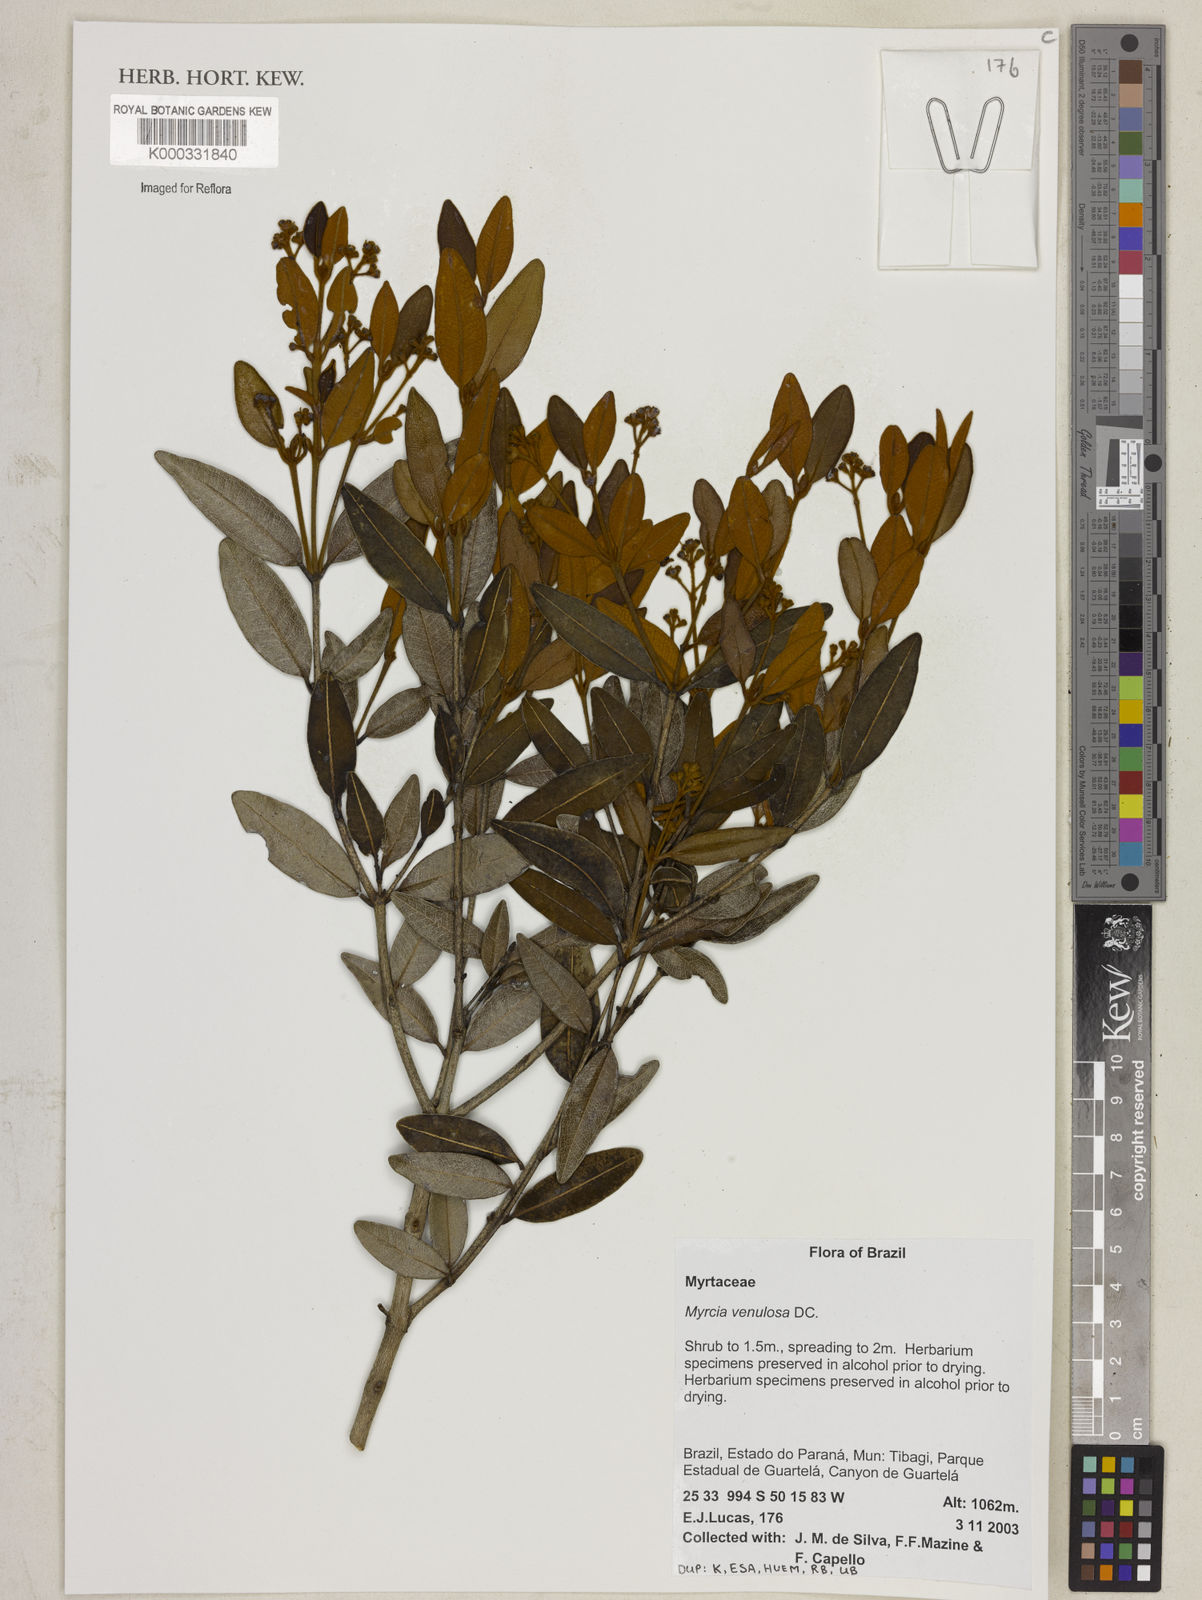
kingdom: Plantae
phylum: Tracheophyta
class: Magnoliopsida
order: Myrtales
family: Myrtaceae
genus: Myrcia
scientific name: Myrcia venulosa
